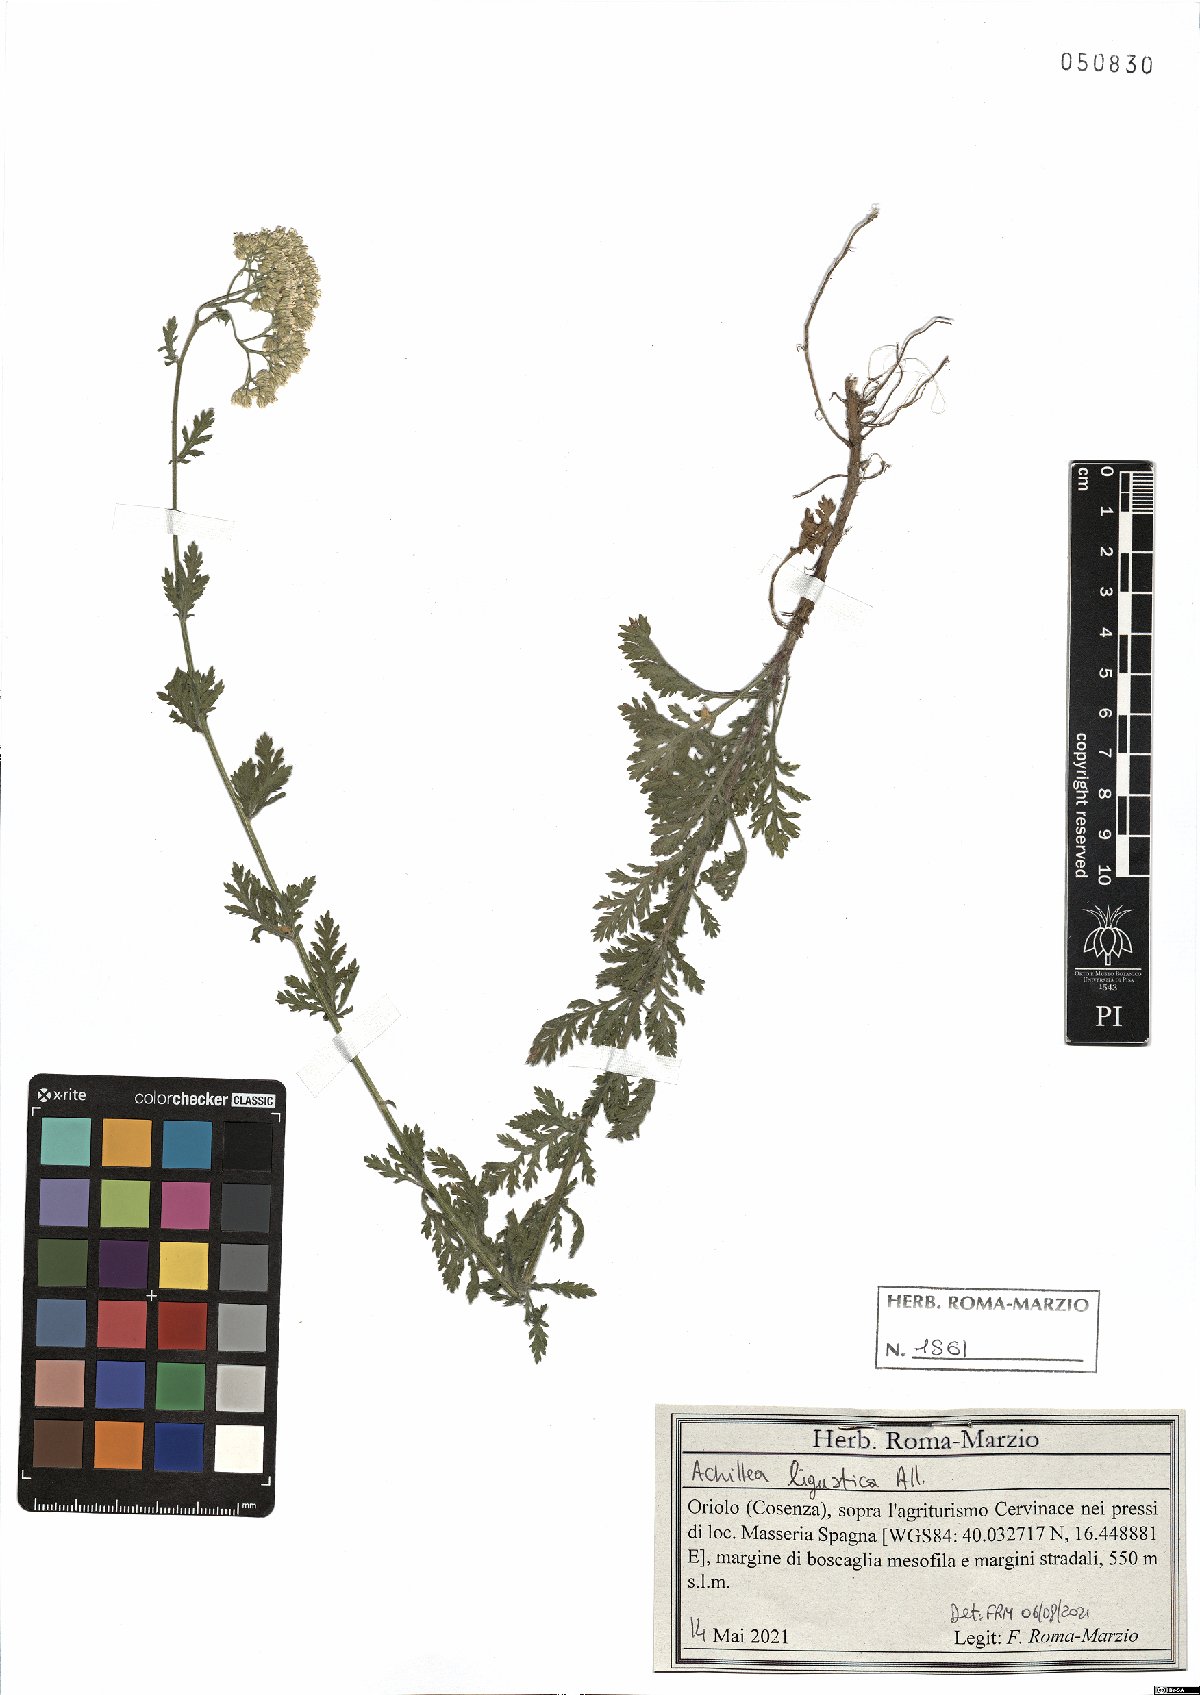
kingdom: Plantae
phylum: Tracheophyta
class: Magnoliopsida
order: Asterales
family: Asteraceae
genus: Achillea
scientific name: Achillea ligustica
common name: Southern yarrow
